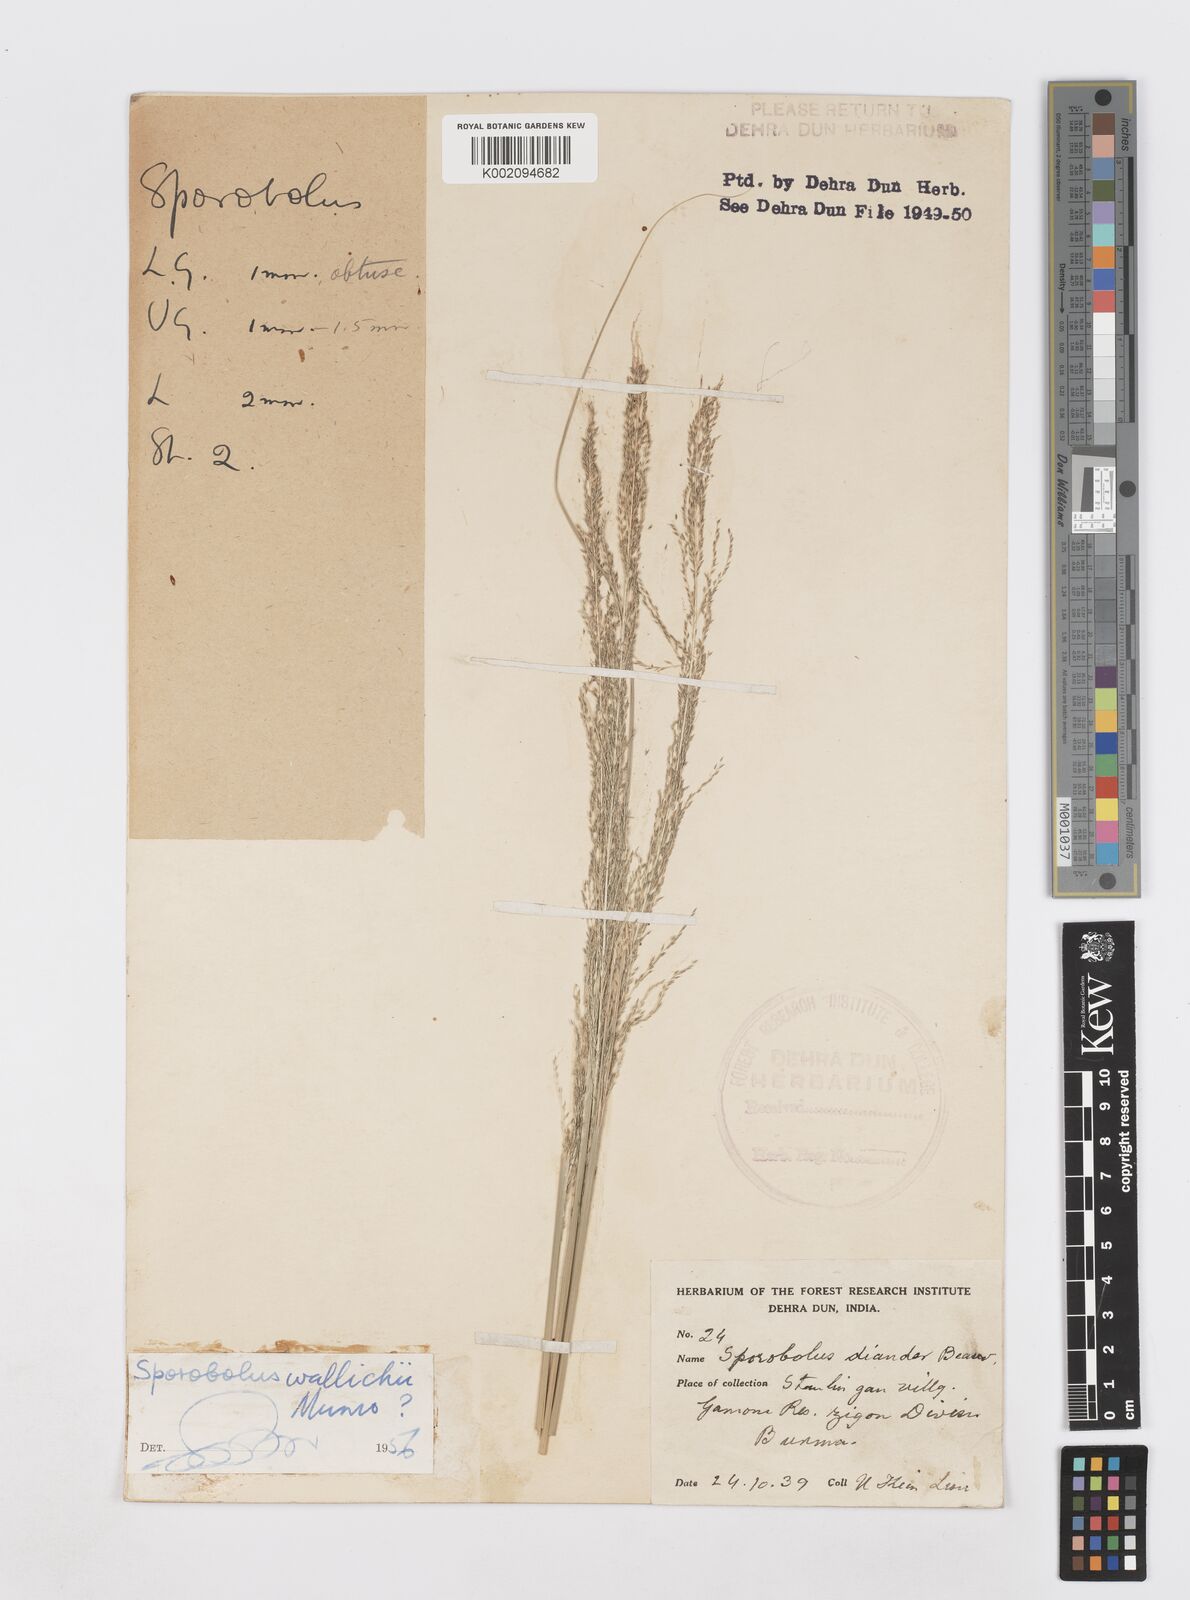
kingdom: Plantae
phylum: Tracheophyta
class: Liliopsida
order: Poales
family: Poaceae
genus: Sporobolus
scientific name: Sporobolus wallichii
